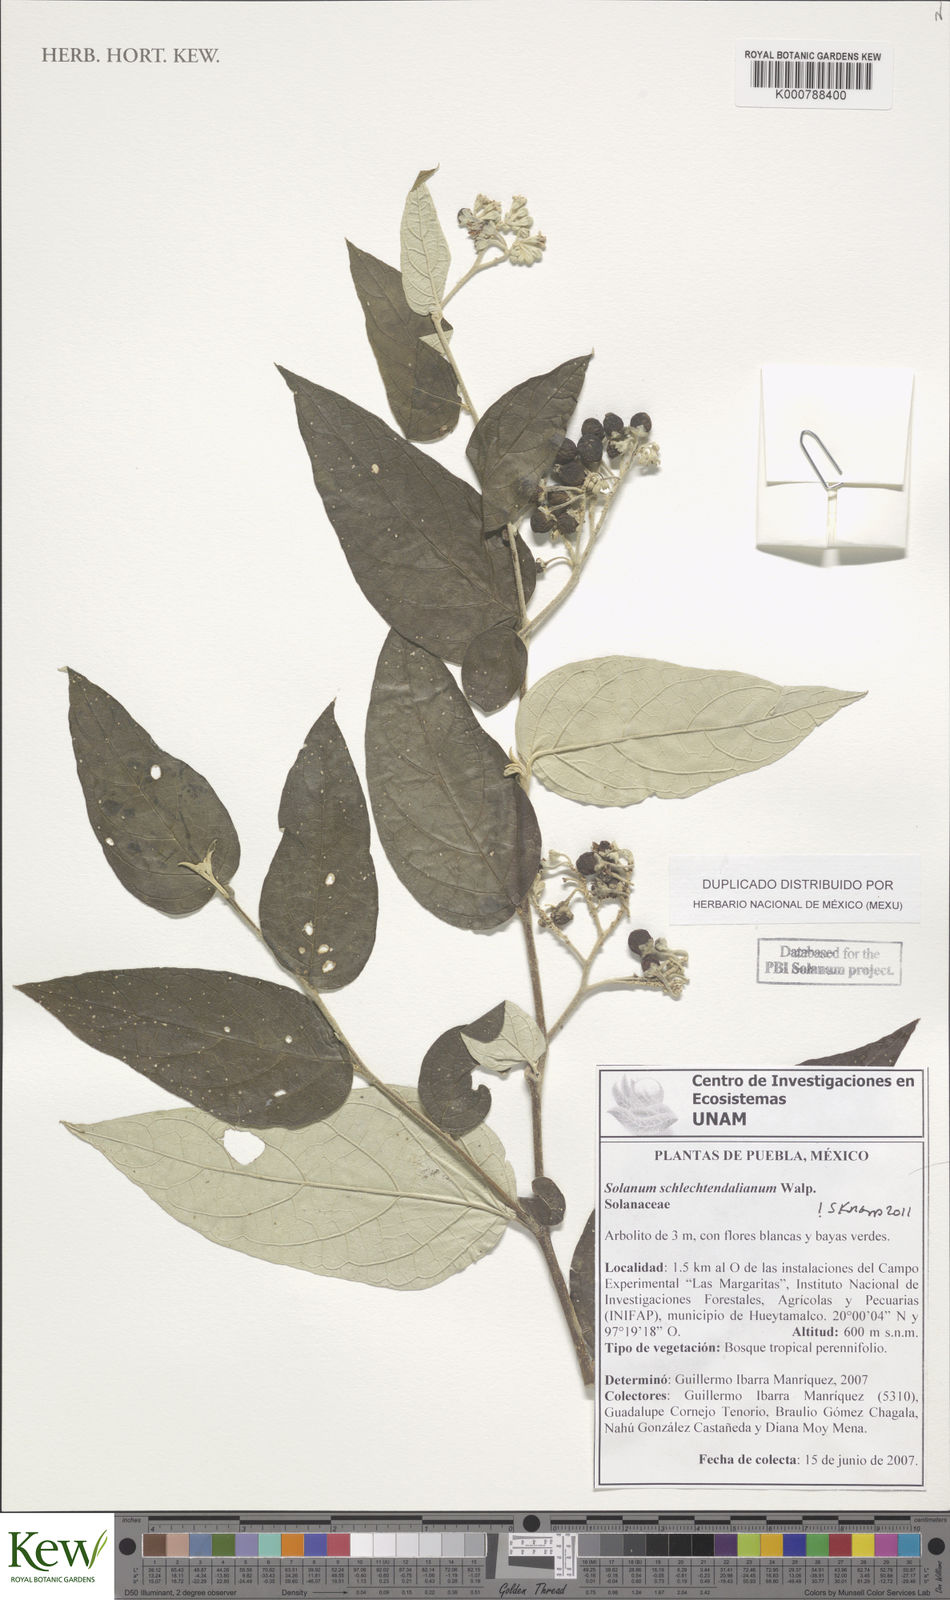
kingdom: Plantae
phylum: Tracheophyta
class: Magnoliopsida
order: Solanales
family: Solanaceae
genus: Solanum
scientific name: Solanum schlechtendalianum
